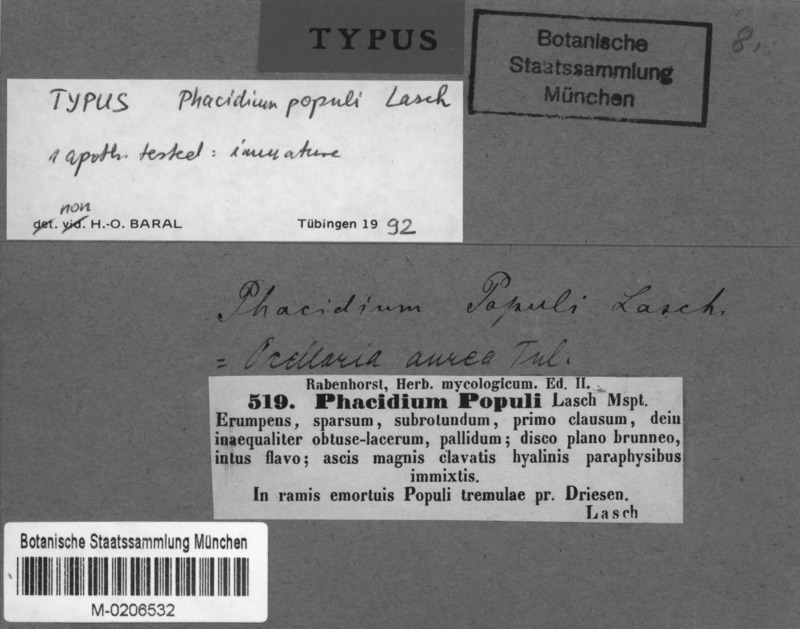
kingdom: Fungi
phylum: Ascomycota
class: Leotiomycetes
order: Helotiales
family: Dermateaceae
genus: Pezicula
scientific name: Pezicula ocellata
